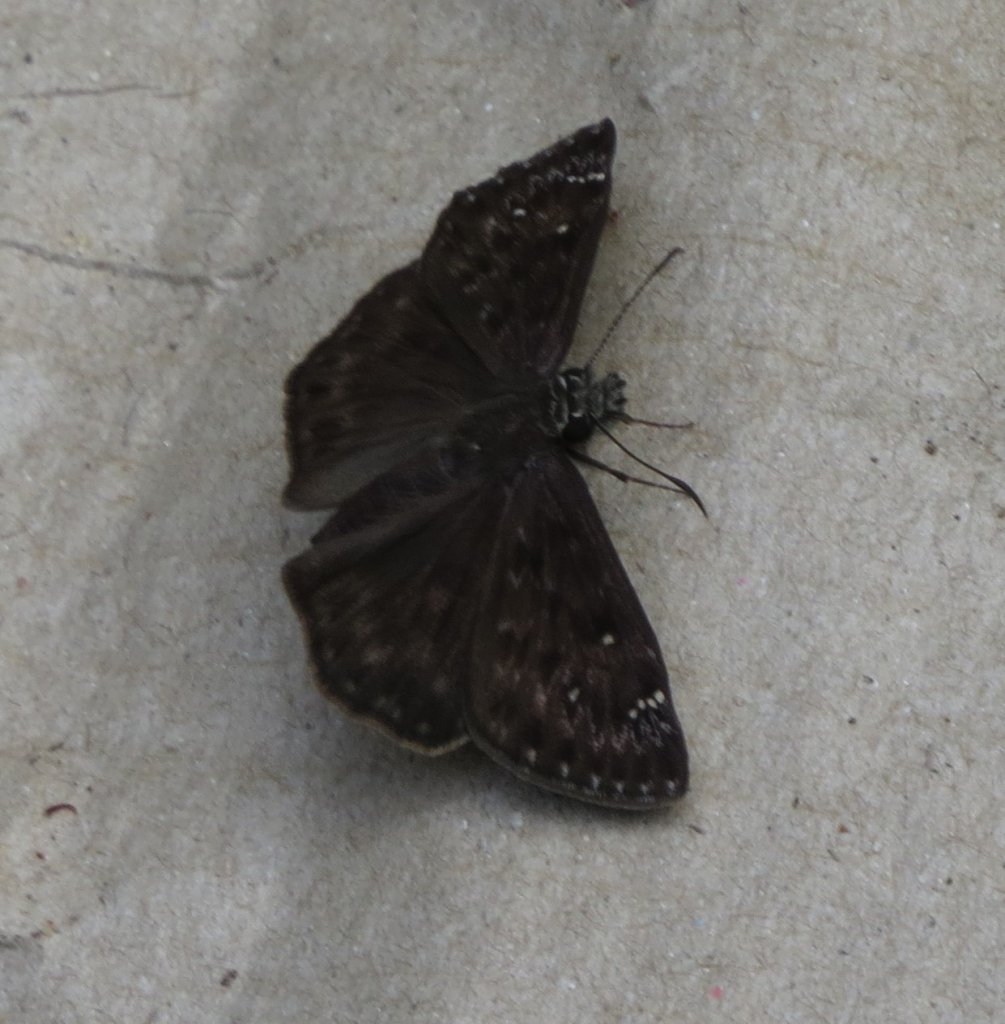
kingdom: Animalia
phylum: Arthropoda
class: Insecta
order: Lepidoptera
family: Hesperiidae
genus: Gesta
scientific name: Gesta
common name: Horace's Duskywing
